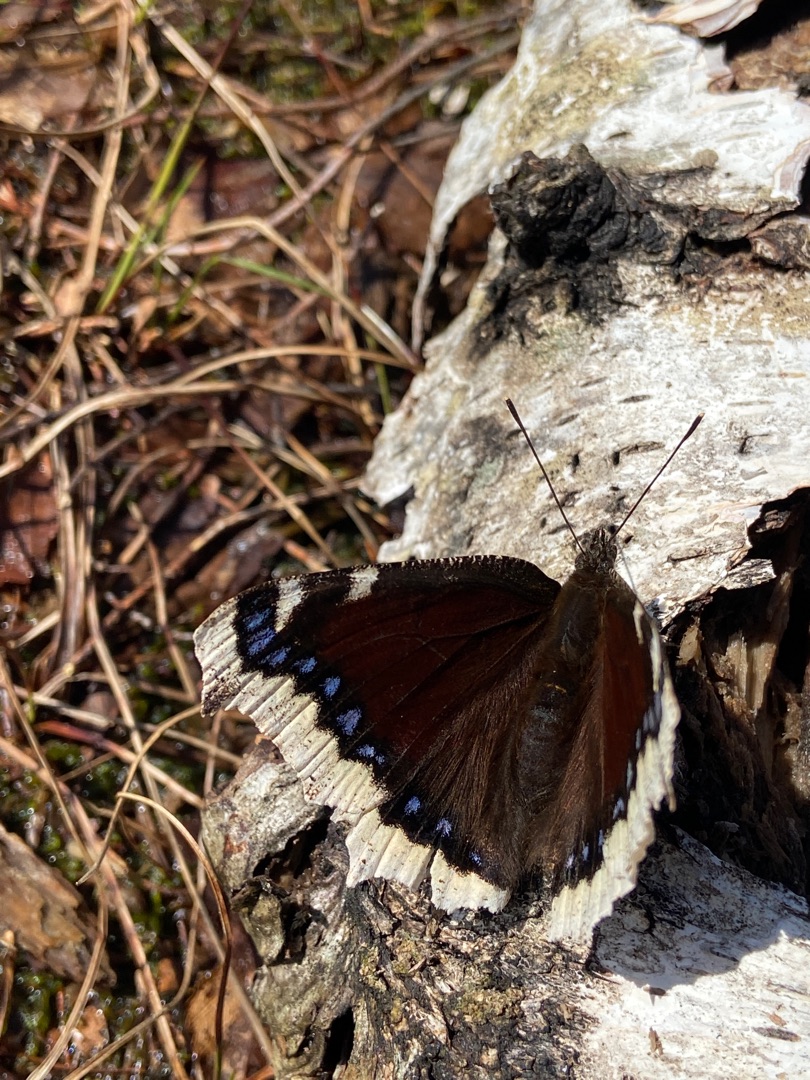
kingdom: Animalia
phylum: Arthropoda
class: Insecta
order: Lepidoptera
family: Nymphalidae
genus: Nymphalis
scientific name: Nymphalis antiopa
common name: Sørgekåbe
